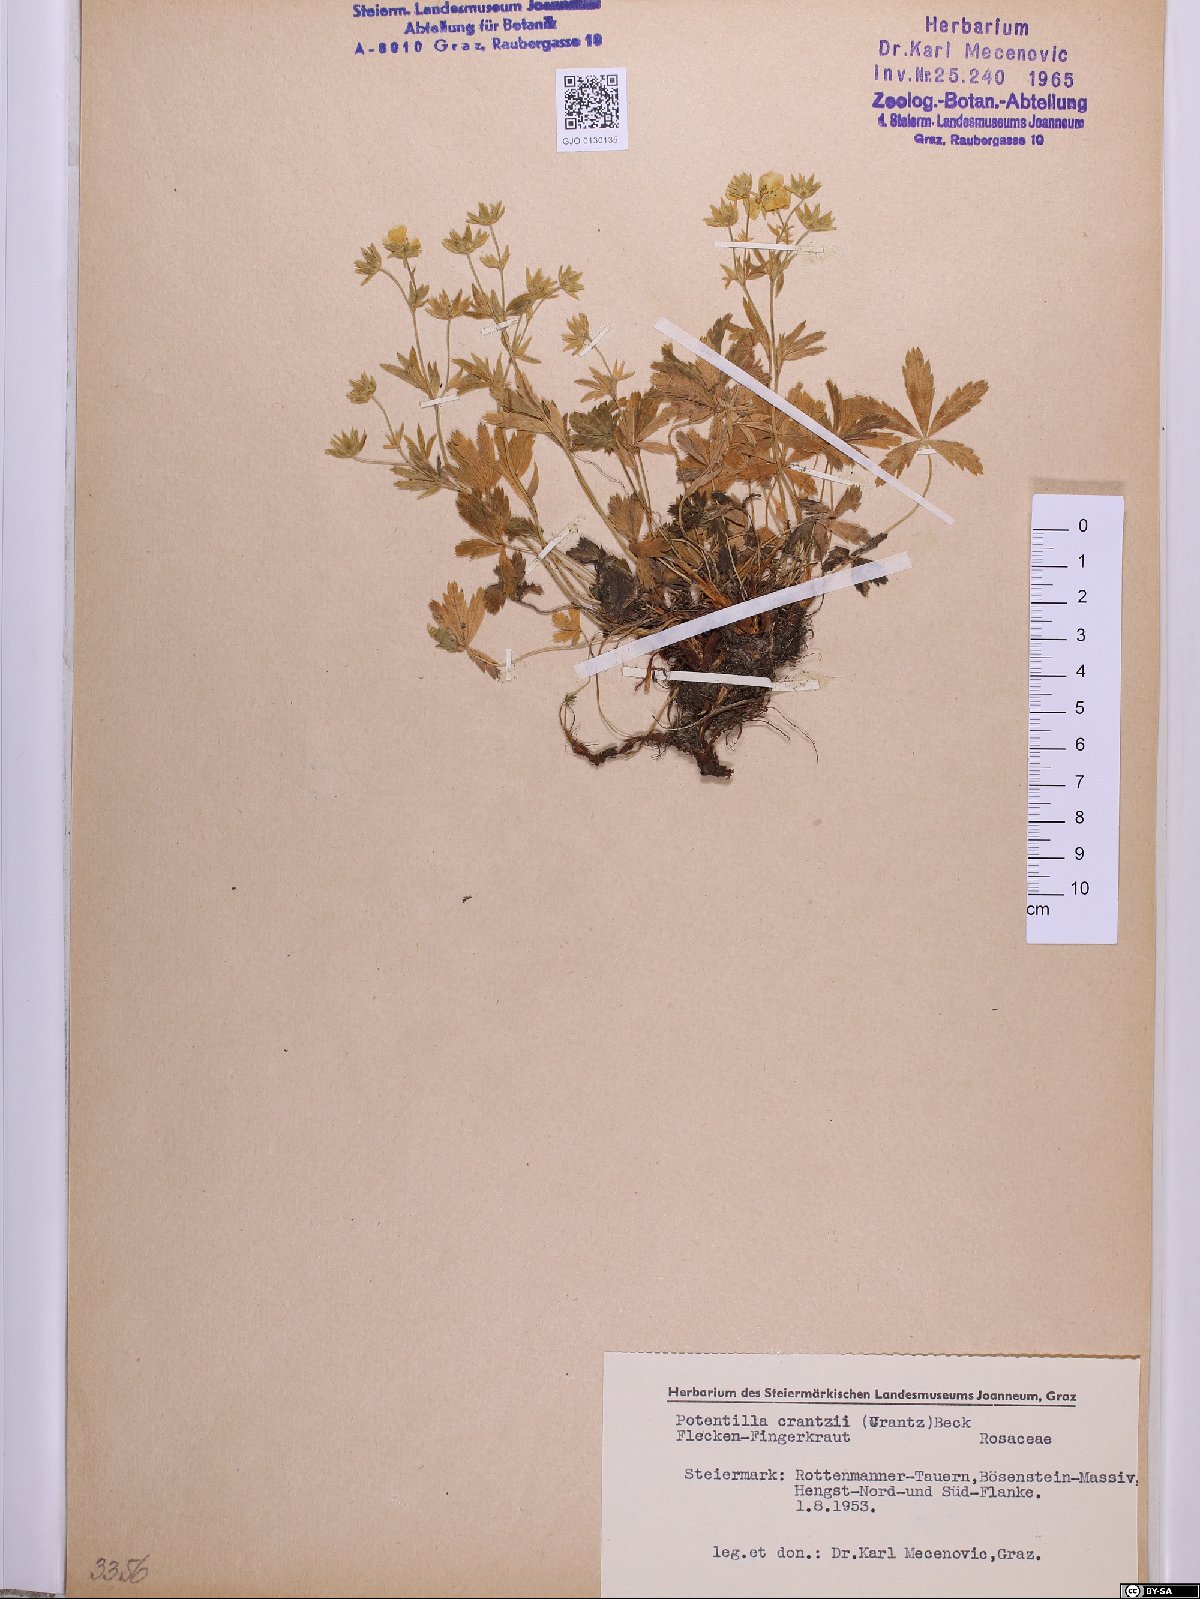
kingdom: Plantae
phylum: Tracheophyta
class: Magnoliopsida
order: Rosales
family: Rosaceae
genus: Potentilla
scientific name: Potentilla crantzii
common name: Alpine cinquefoil
